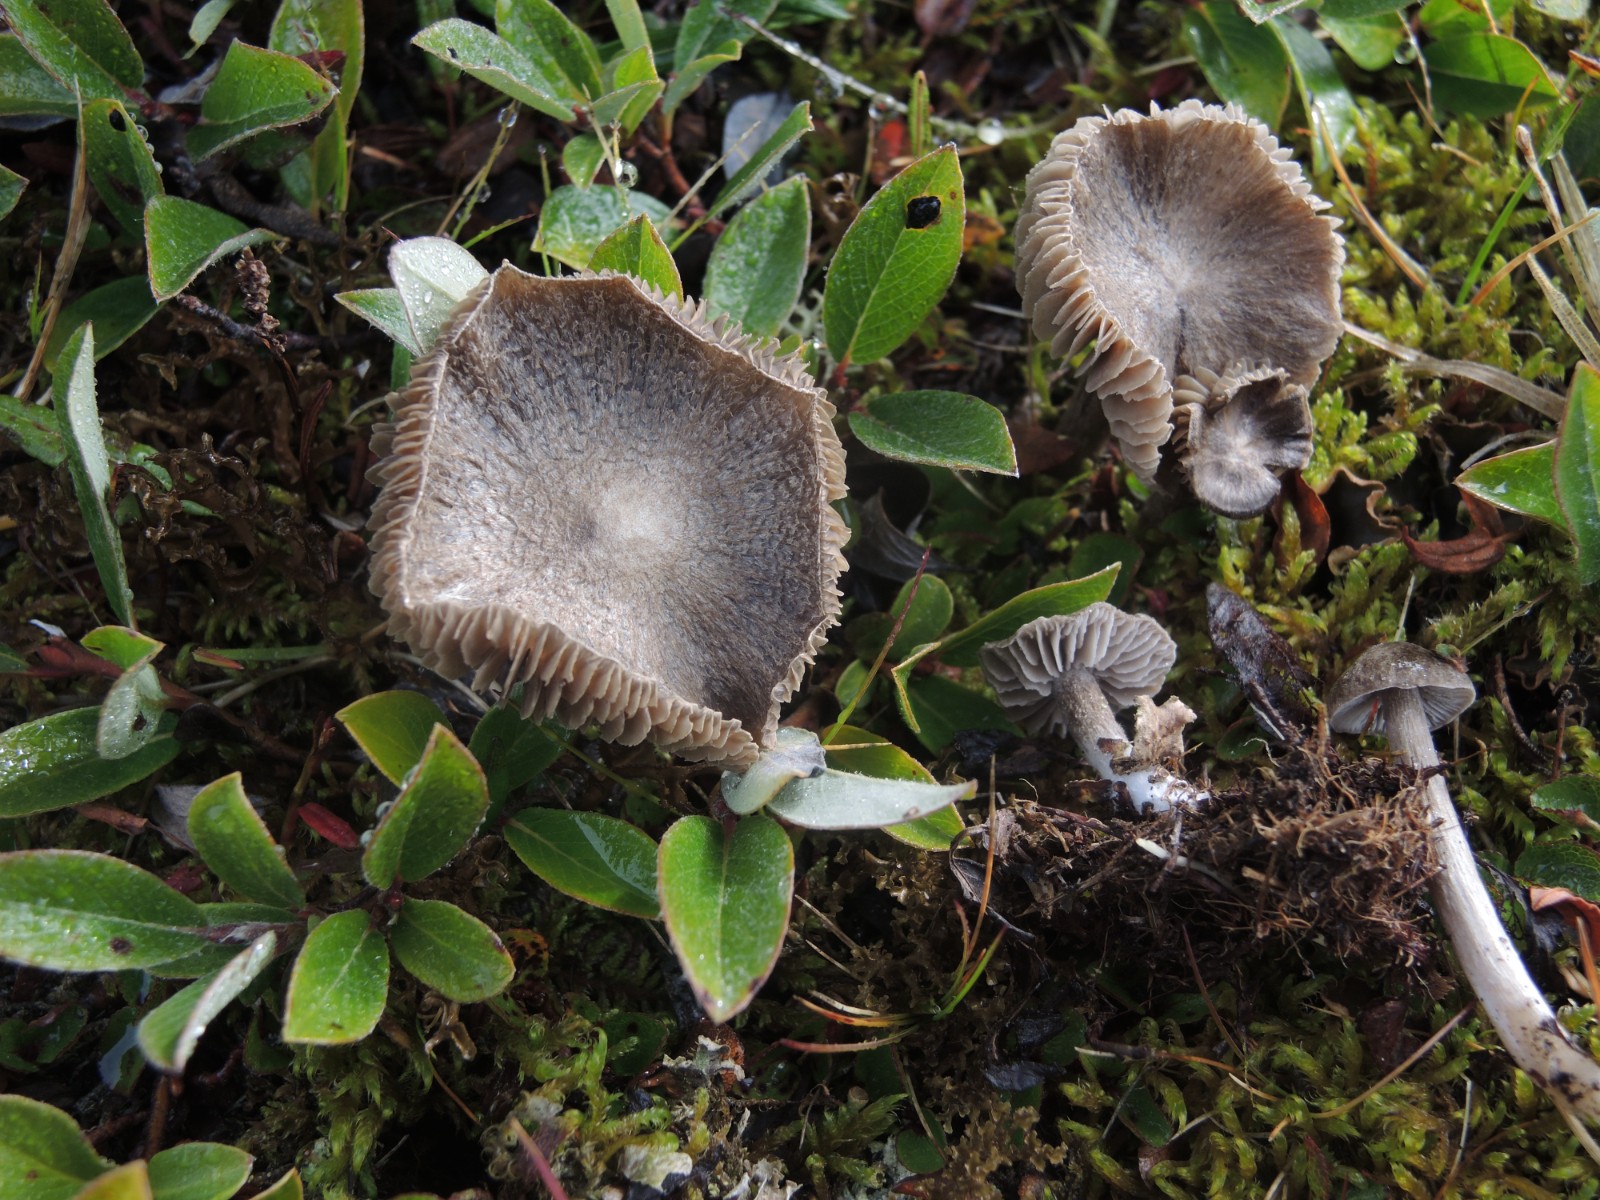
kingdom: Fungi
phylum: Basidiomycota
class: Agaricomycetes
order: Agaricales
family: Entolomataceae
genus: Entoloma
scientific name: Entoloma fuscotomentosum
